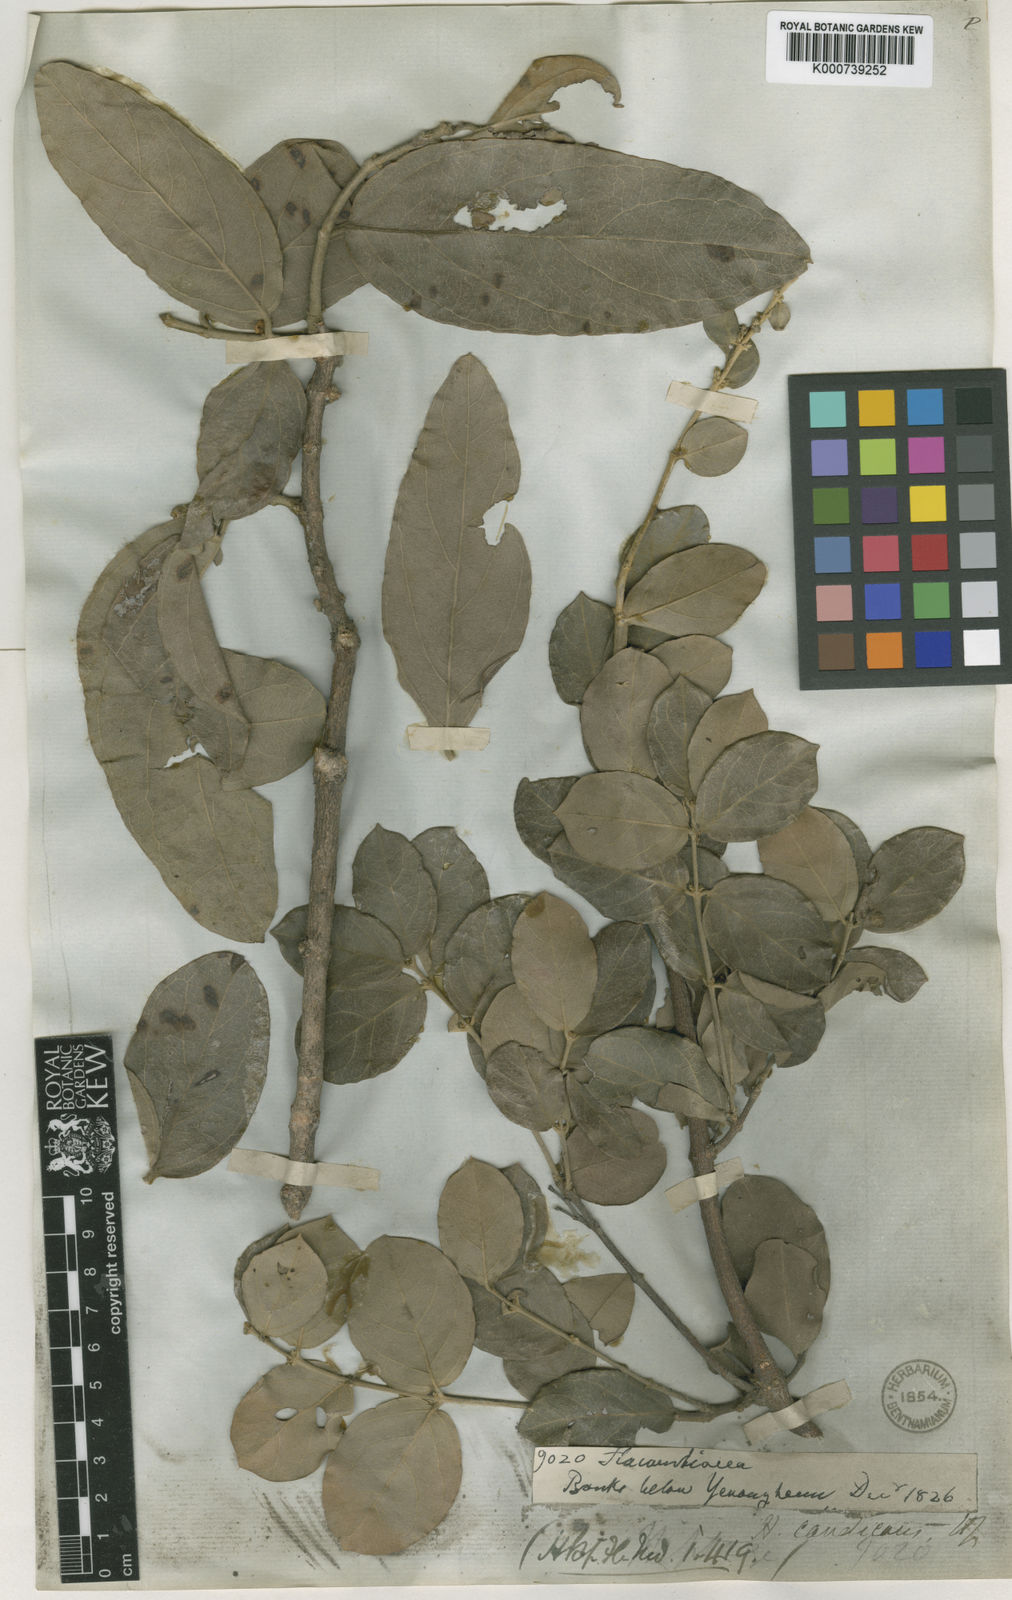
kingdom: Plantae
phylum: Tracheophyta
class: Magnoliopsida
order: Malpighiales
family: Malpighiaceae
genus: Hiptage
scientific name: Hiptage candicans
